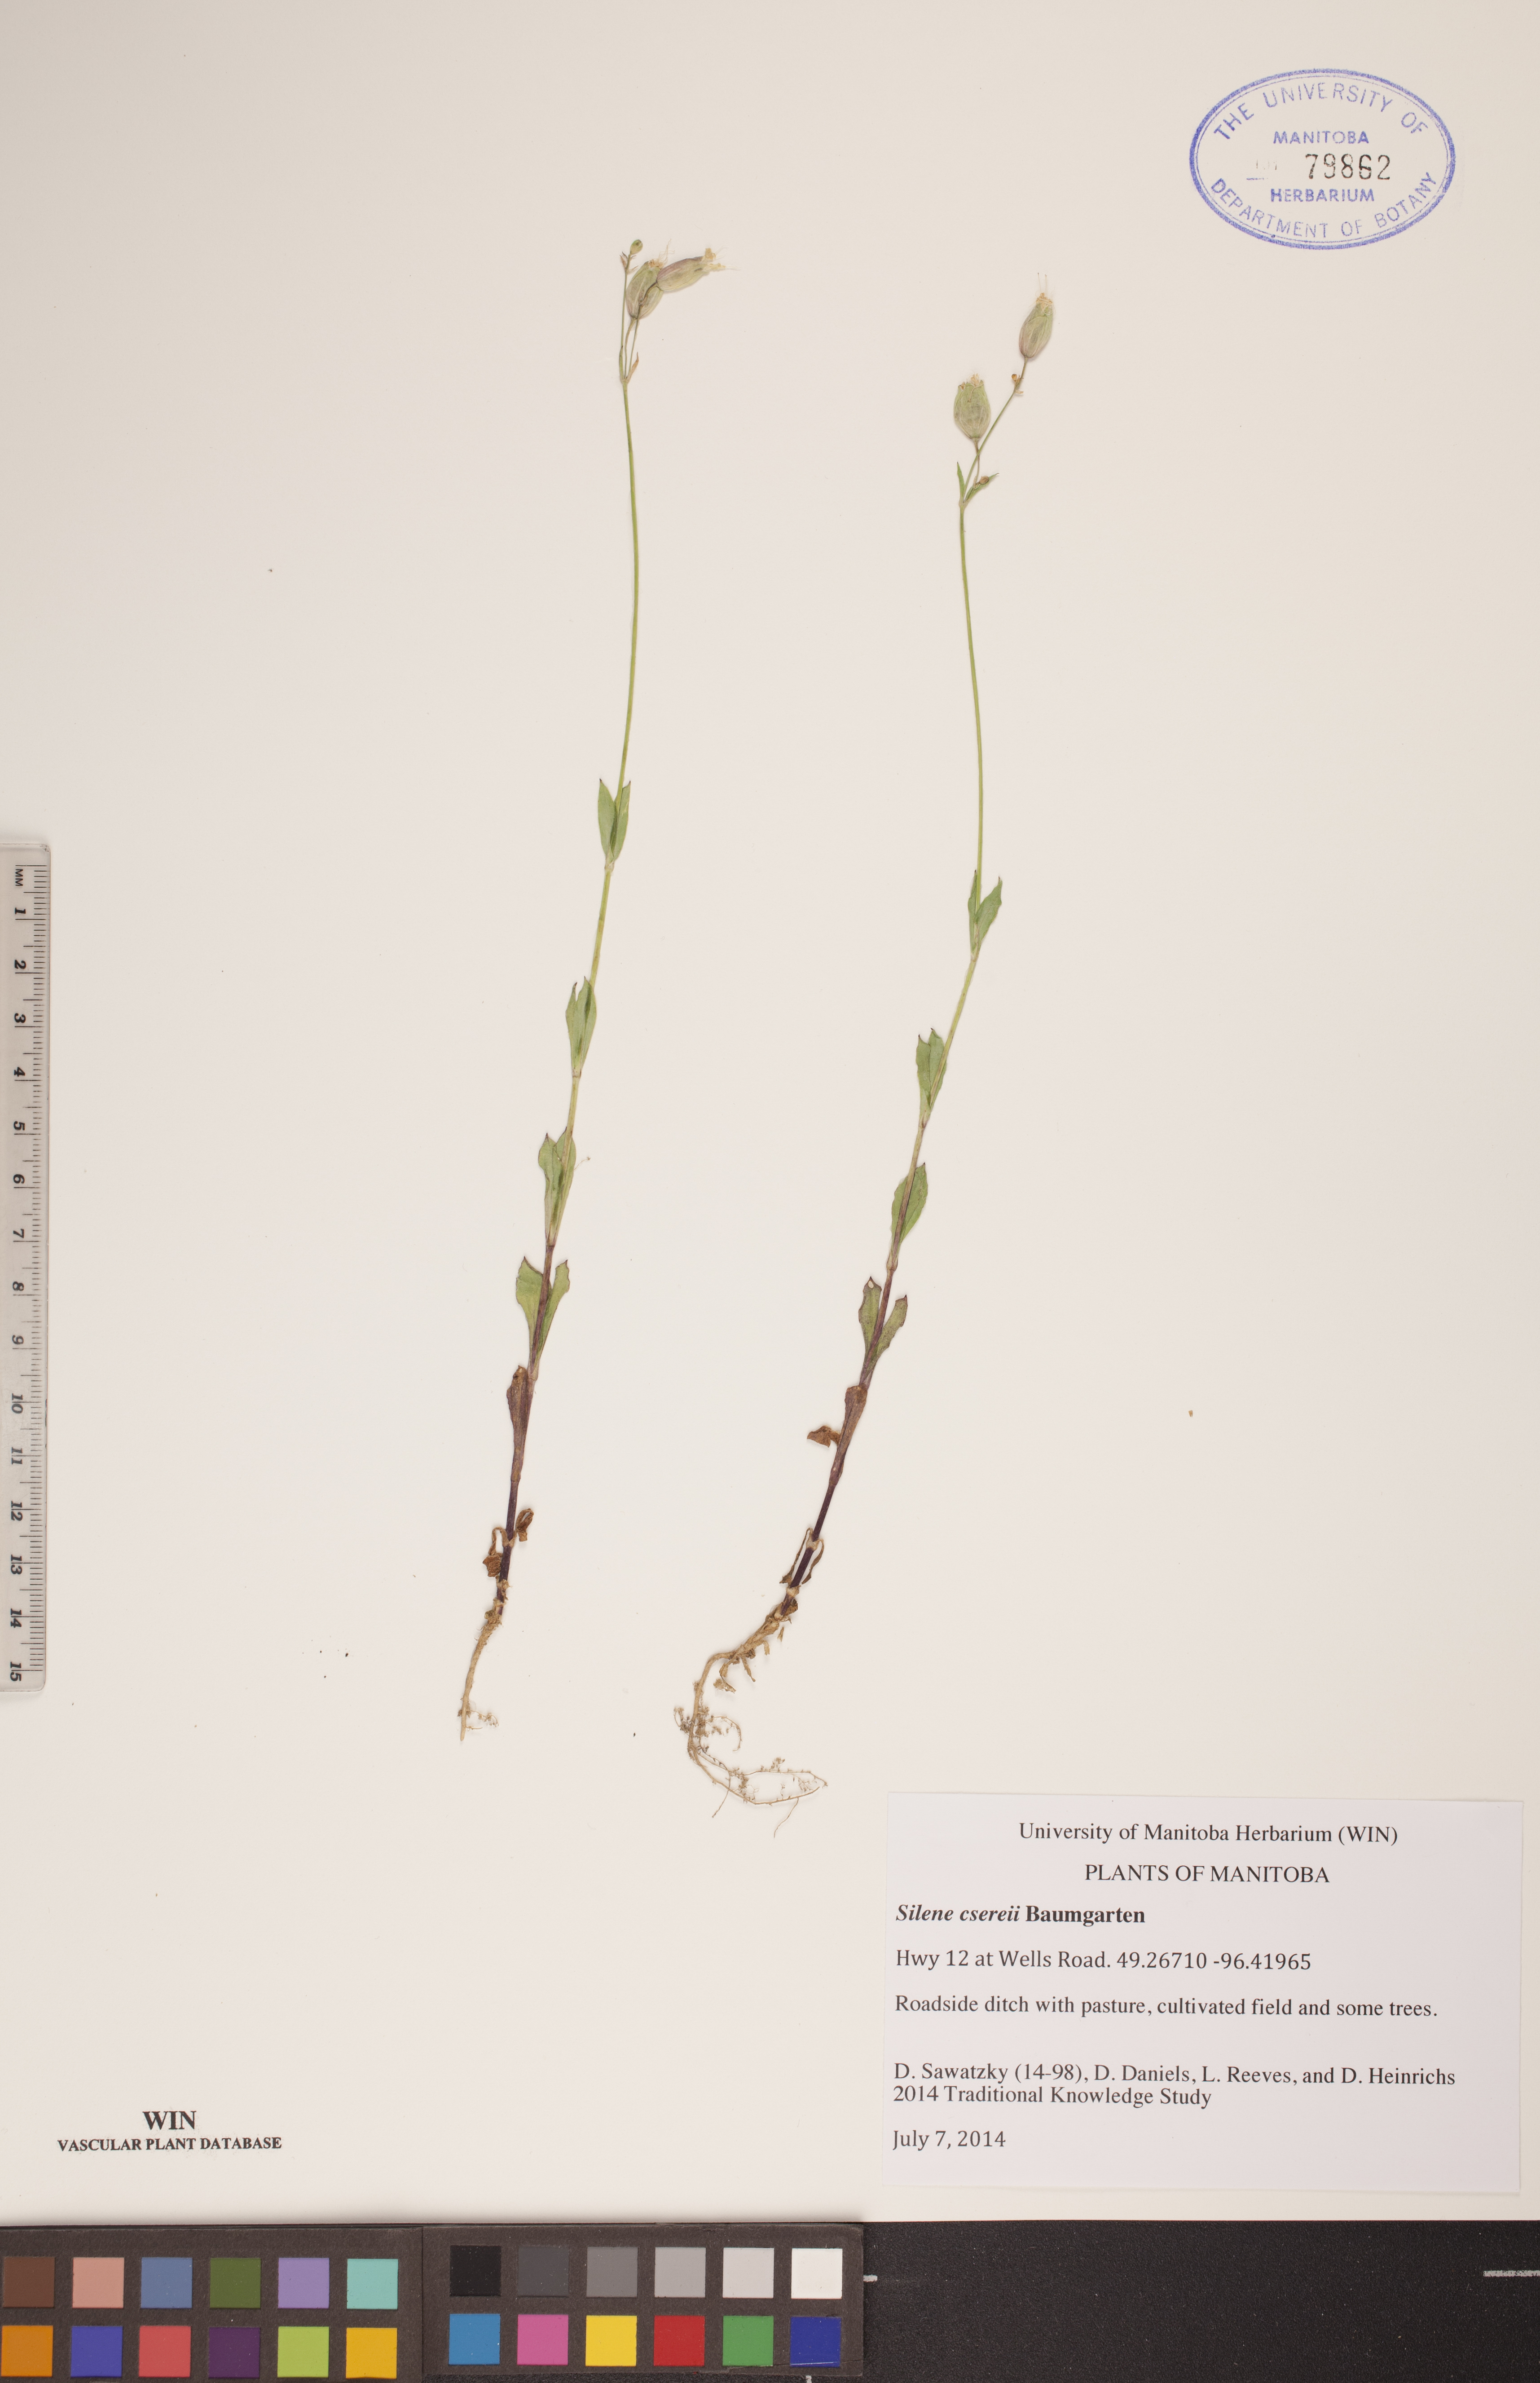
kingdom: Plantae
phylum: Tracheophyta
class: Magnoliopsida
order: Caryophyllales
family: Caryophyllaceae
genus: Silene
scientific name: Silene csereii
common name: Balkan catchfly
